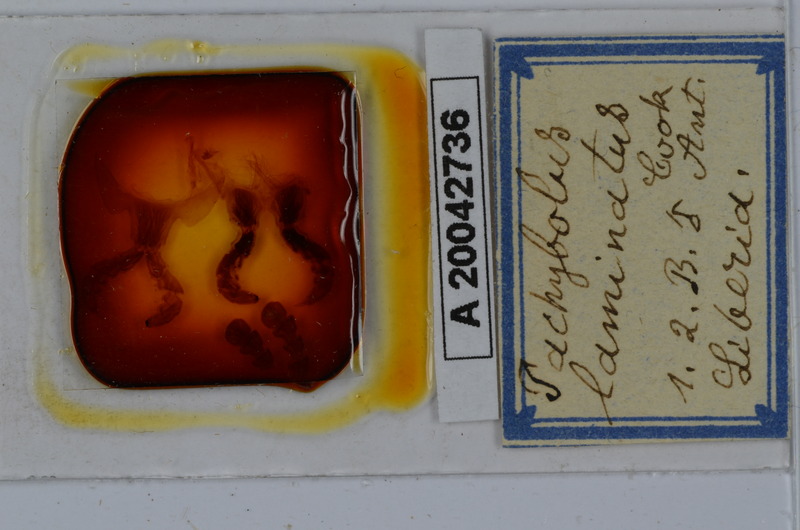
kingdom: Animalia
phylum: Arthropoda
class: Diplopoda
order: Spirobolida
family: Pachybolidae
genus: Pelmatojulus
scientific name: Pelmatojulus laminatus
